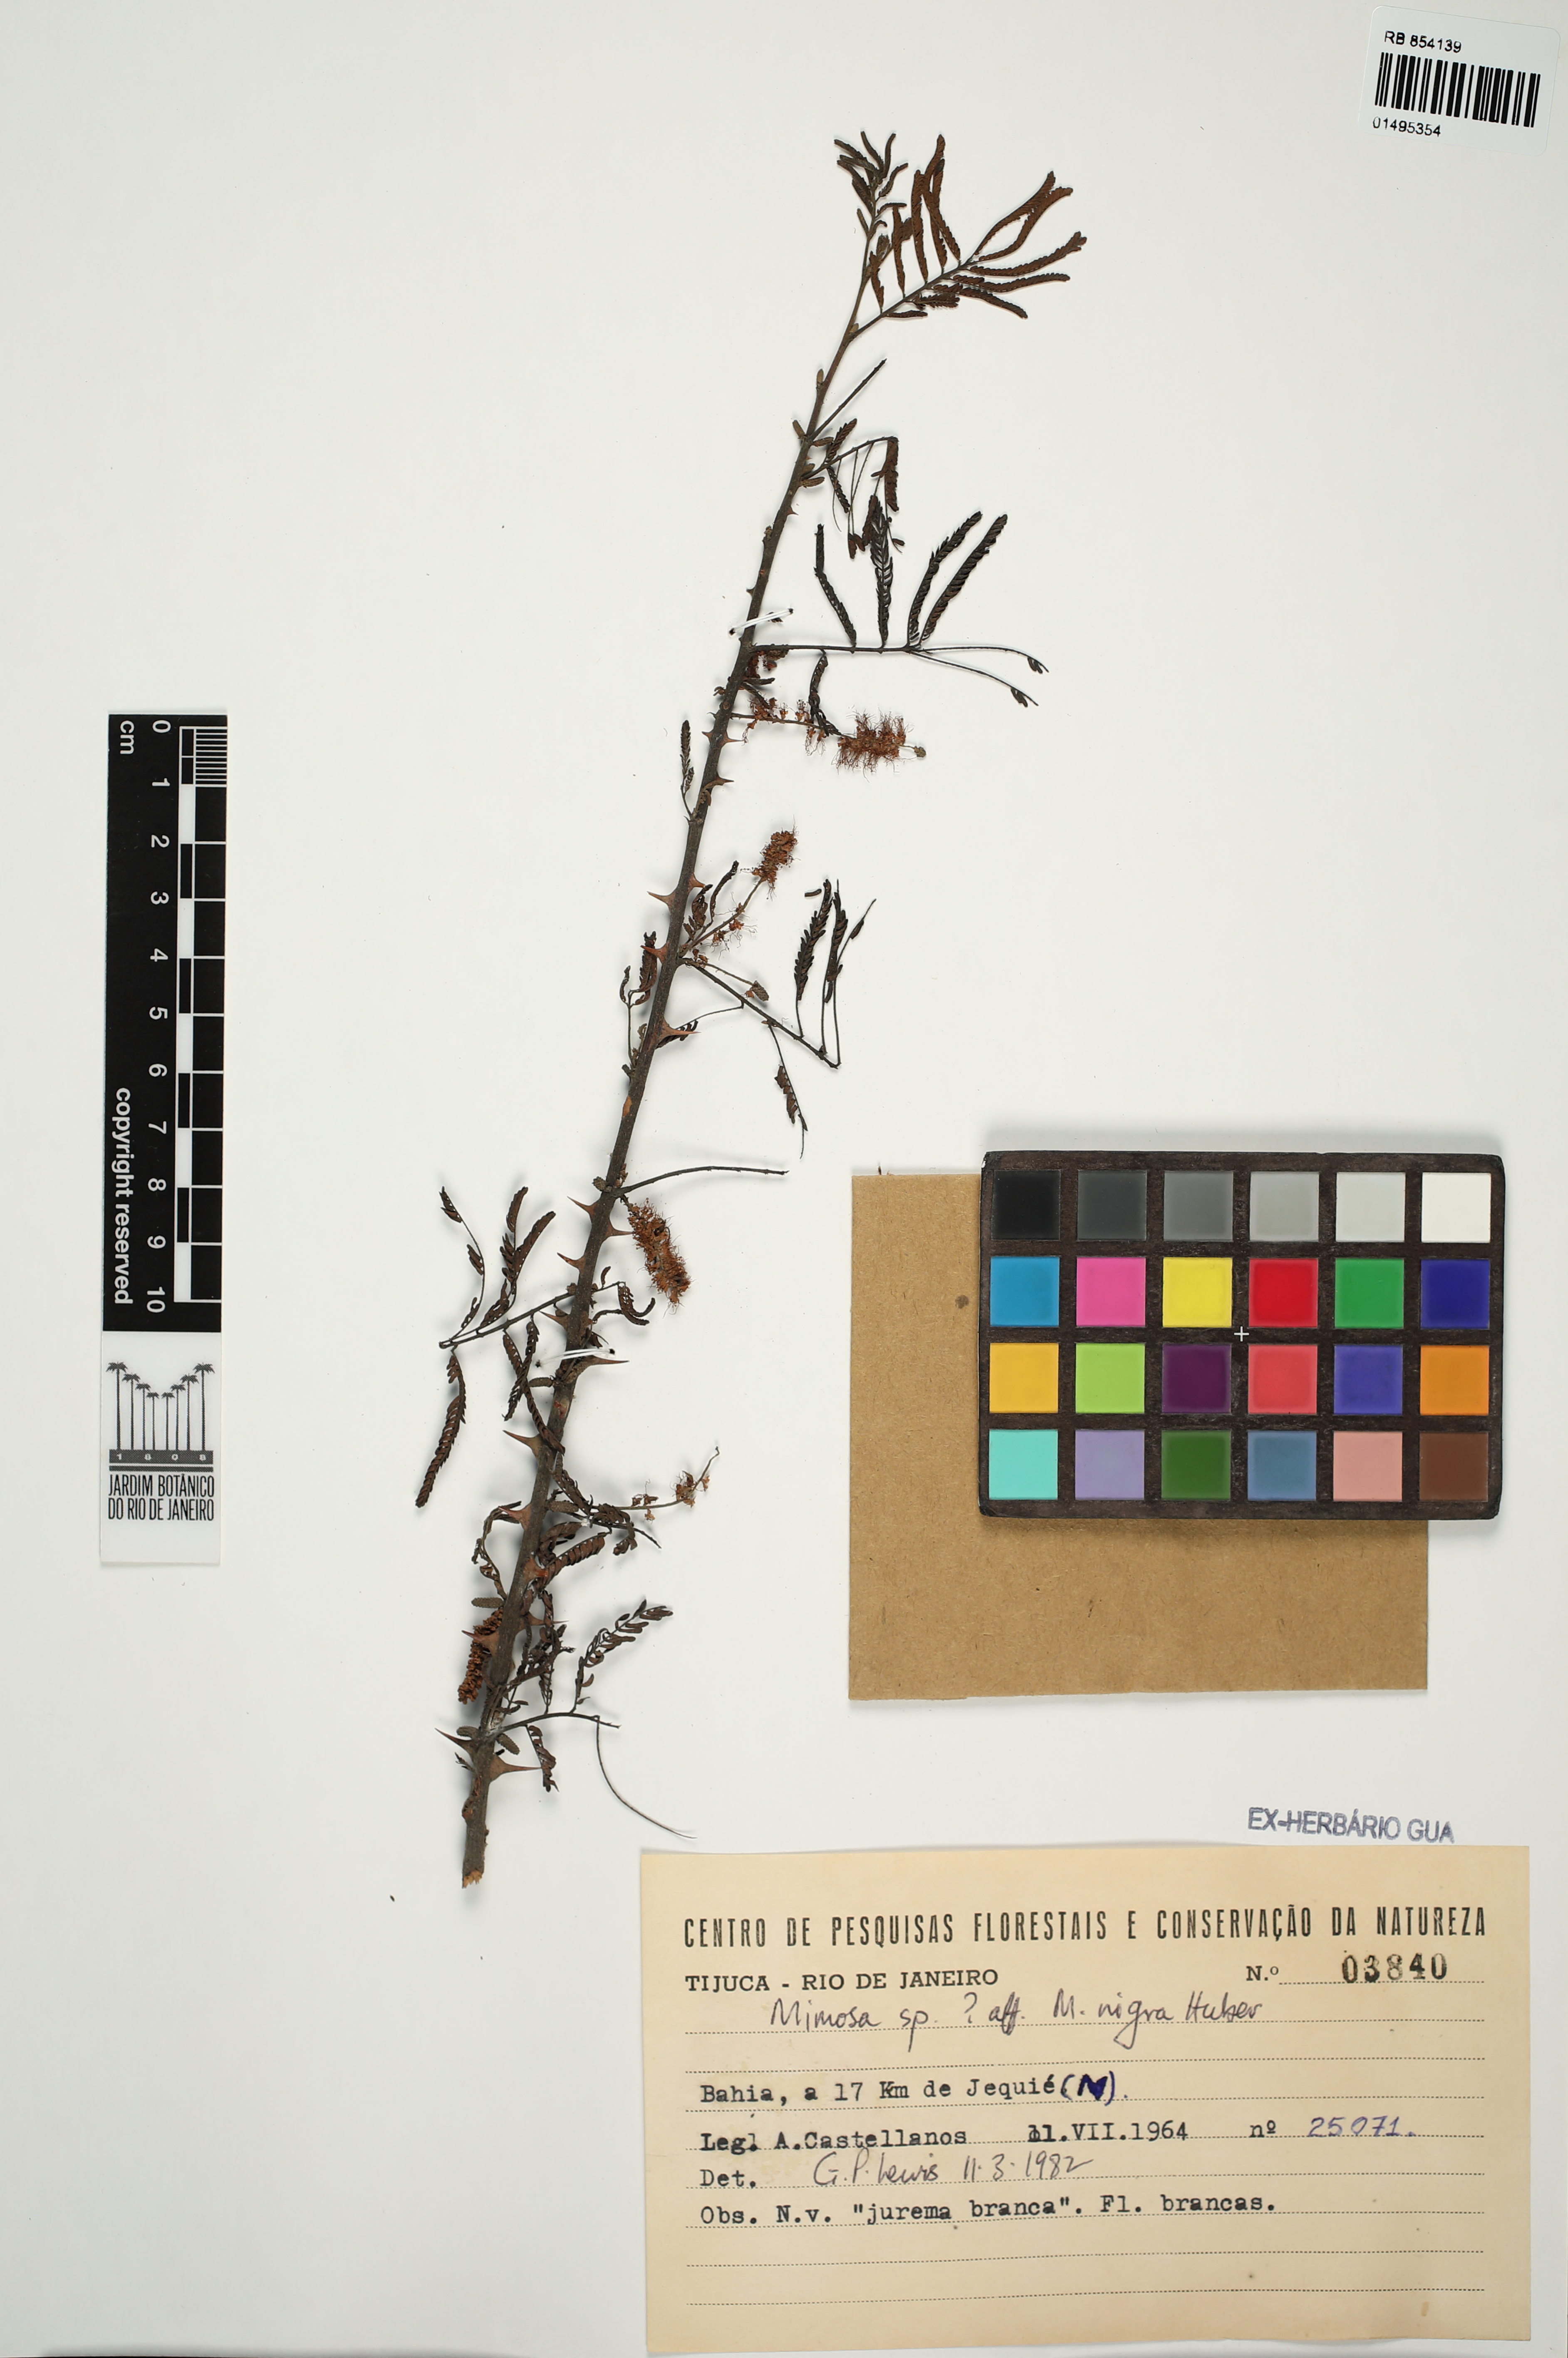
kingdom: Plantae
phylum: Tracheophyta
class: Magnoliopsida
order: Fabales
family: Fabaceae
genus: Mimosa
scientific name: Mimosa tenuiflora
